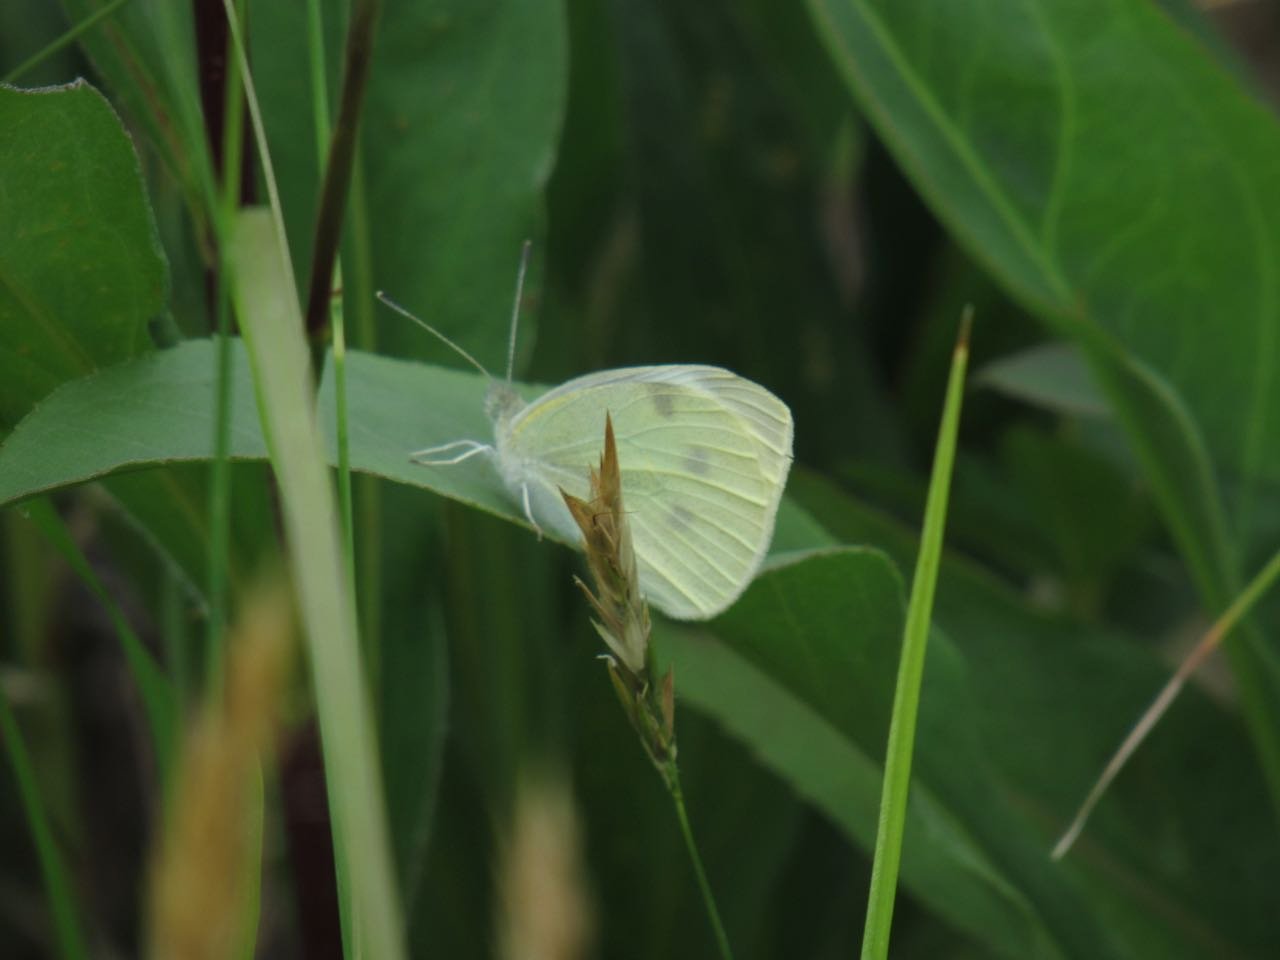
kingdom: Animalia
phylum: Arthropoda
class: Insecta
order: Lepidoptera
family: Pieridae
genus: Pieris
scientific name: Pieris rapae
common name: Cabbage White
